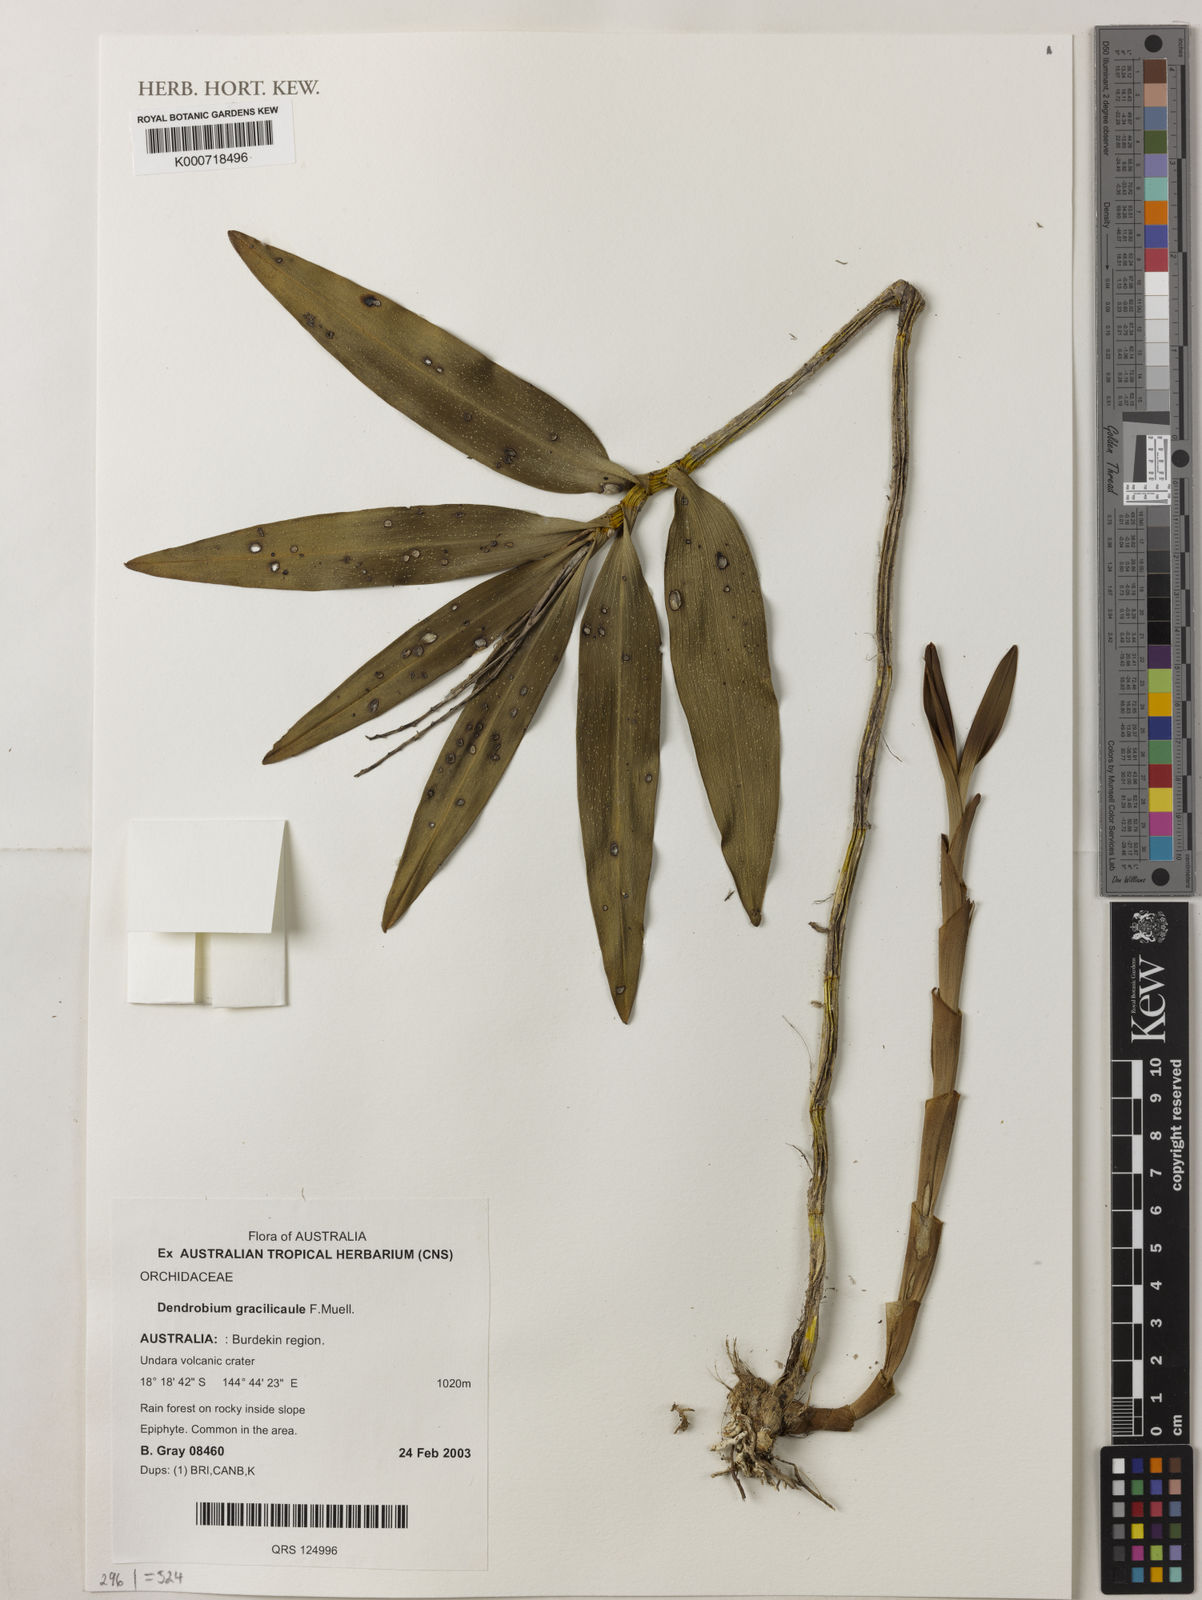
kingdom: Plantae
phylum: Tracheophyta
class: Liliopsida
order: Asparagales
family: Orchidaceae
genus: Dendrobium
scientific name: Dendrobium gracilicaule
